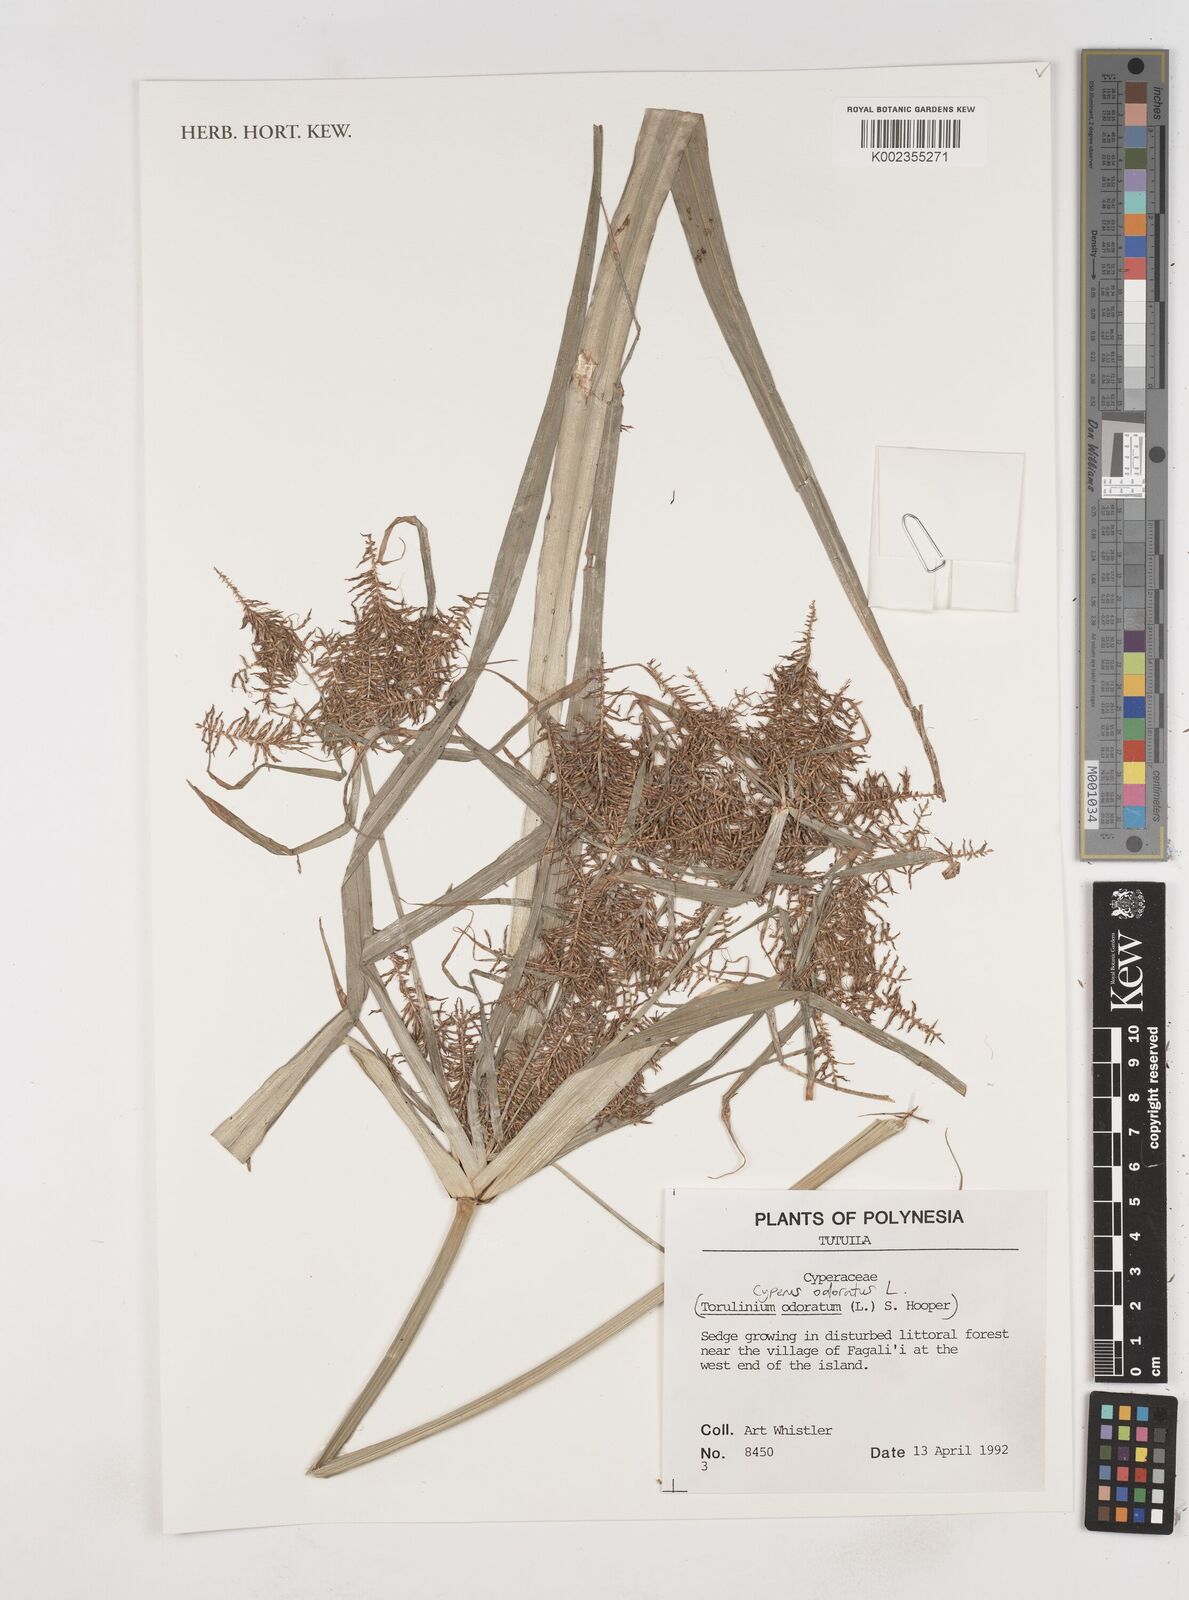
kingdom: Plantae
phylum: Tracheophyta
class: Liliopsida
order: Poales
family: Cyperaceae
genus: Cyperus
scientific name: Cyperus odoratus
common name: Fragrant flatsedge
